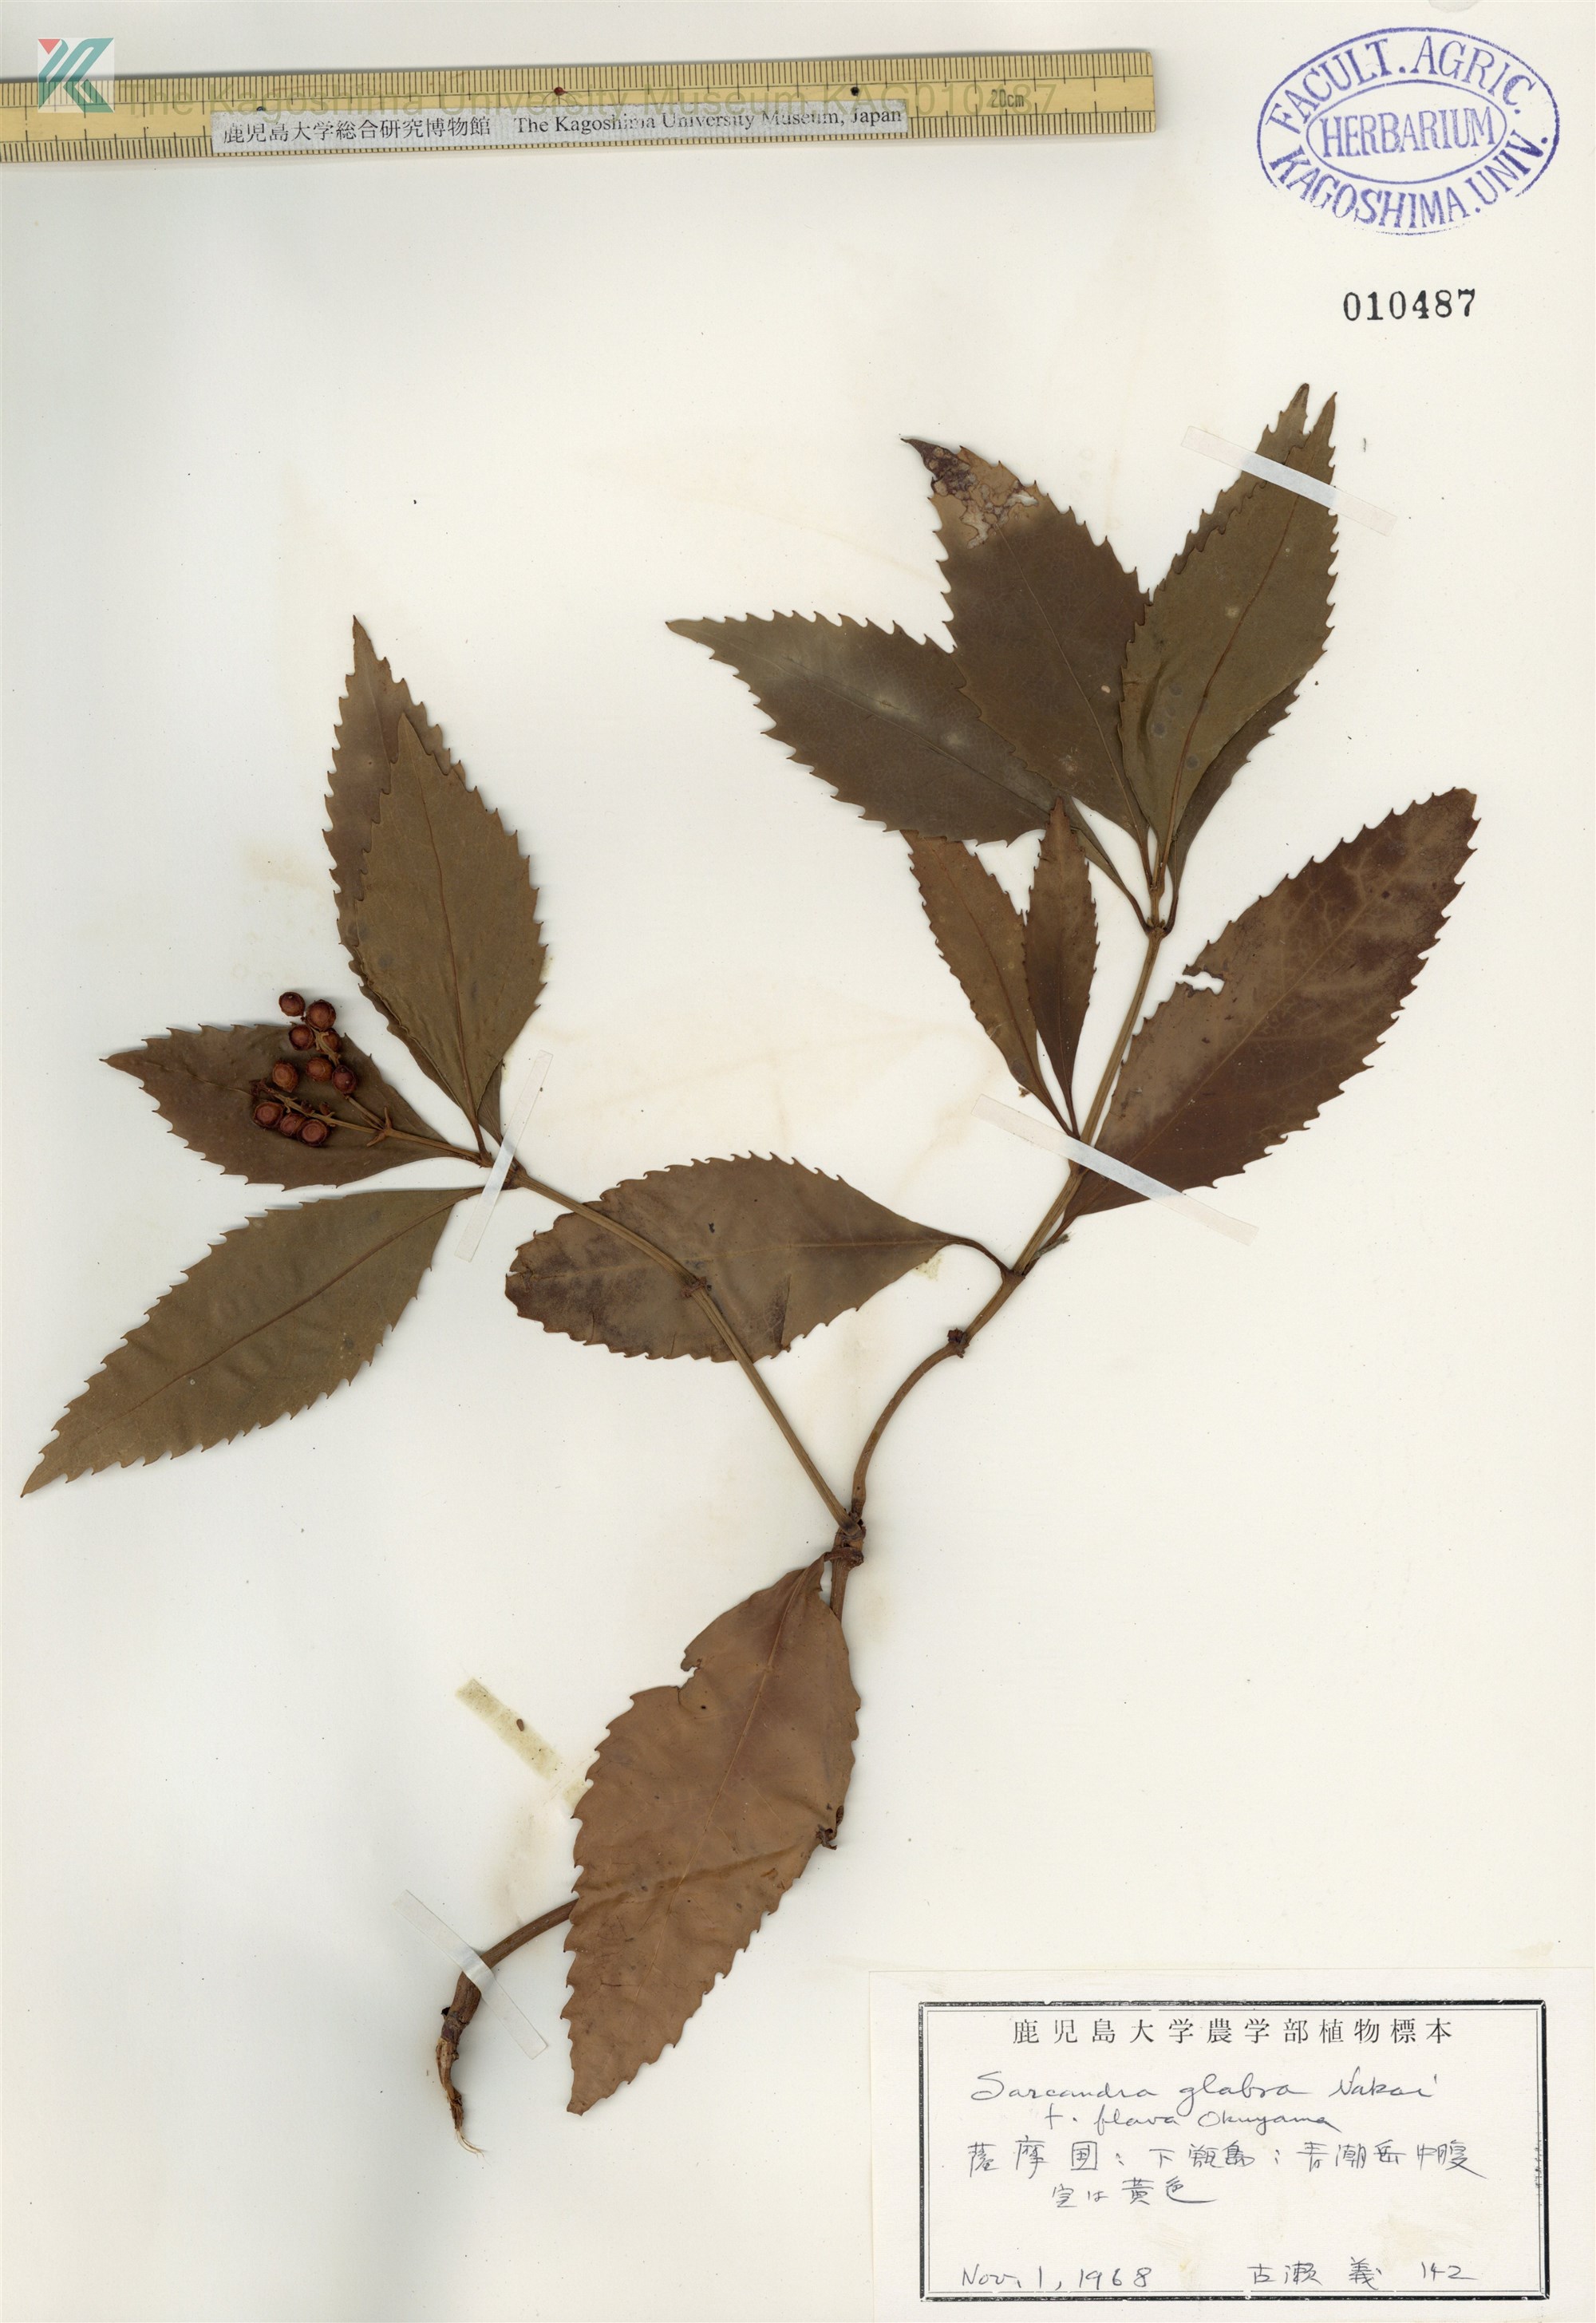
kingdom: Plantae
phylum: Tracheophyta
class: Magnoliopsida
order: Chloranthales
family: Chloranthaceae
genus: Sarcandra
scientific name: Sarcandra glabra
